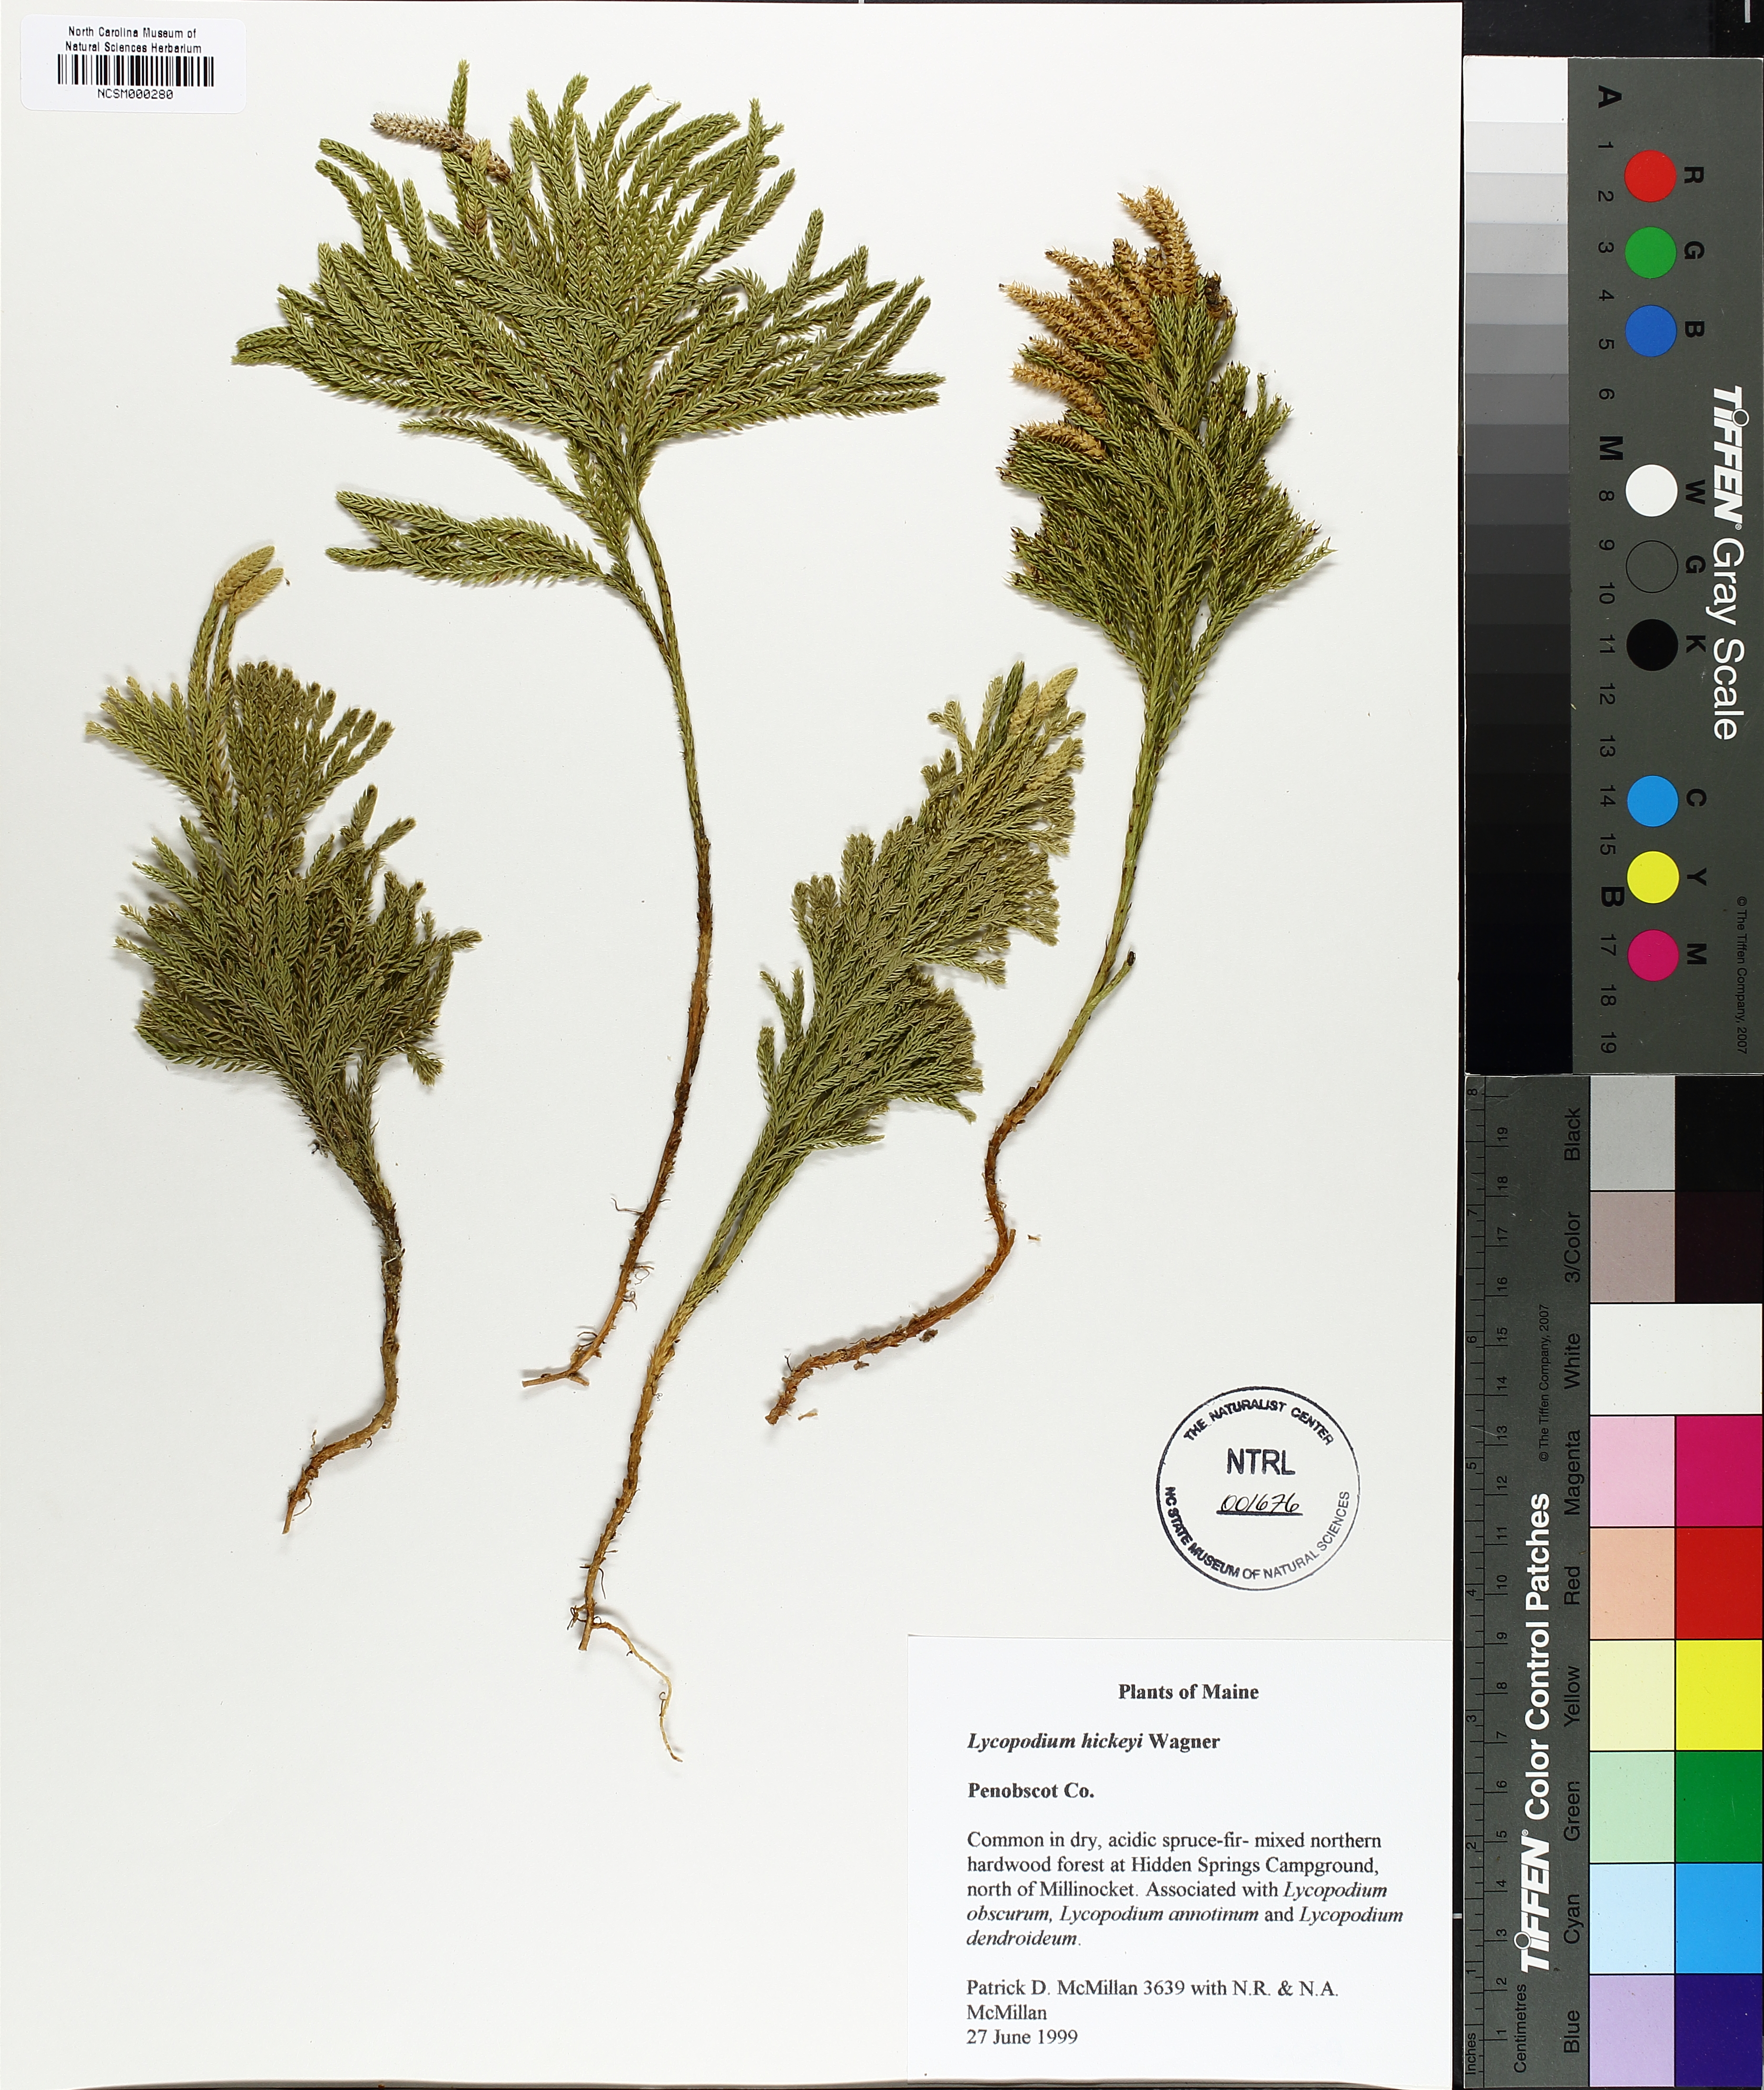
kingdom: Plantae
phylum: Tracheophyta
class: Lycopodiopsida
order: Lycopodiales
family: Lycopodiaceae
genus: Dendrolycopodium
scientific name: Dendrolycopodium hickeyi
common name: Hickey's clubmoss
